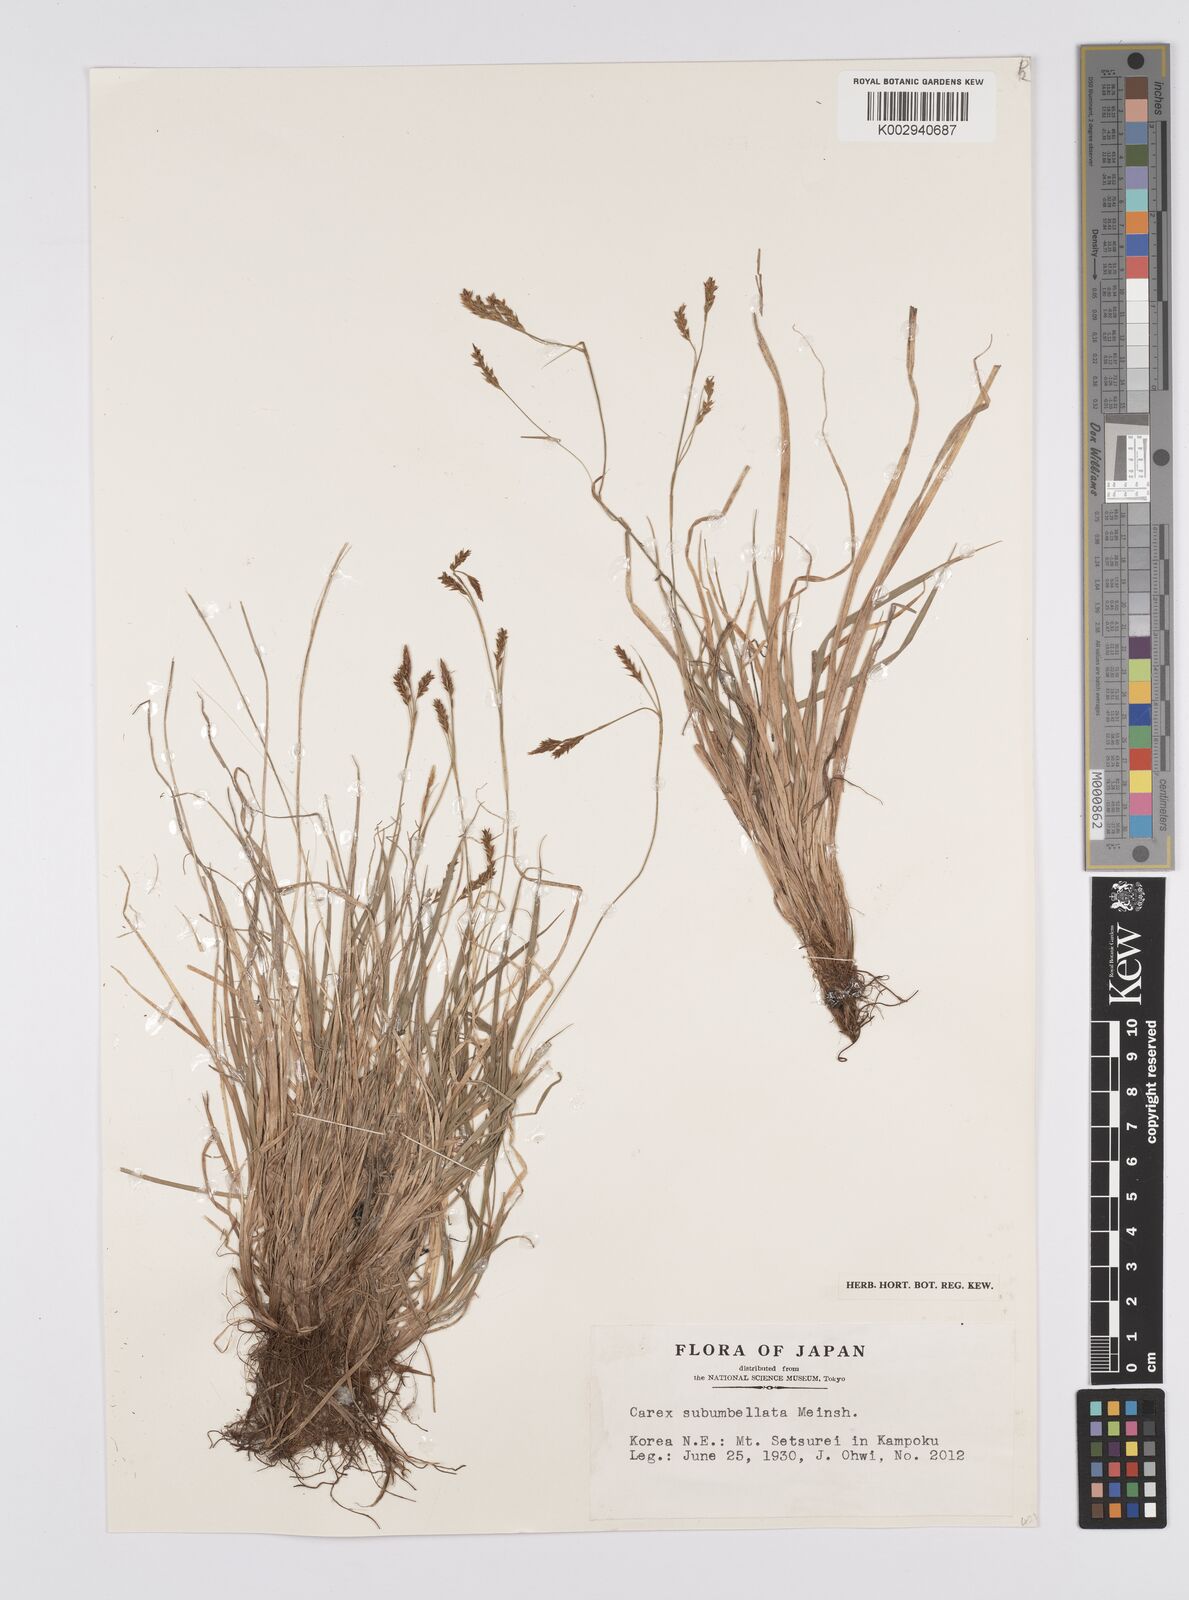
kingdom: Plantae
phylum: Tracheophyta
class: Liliopsida
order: Poales
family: Cyperaceae
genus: Carex
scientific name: Carex subumbellata
